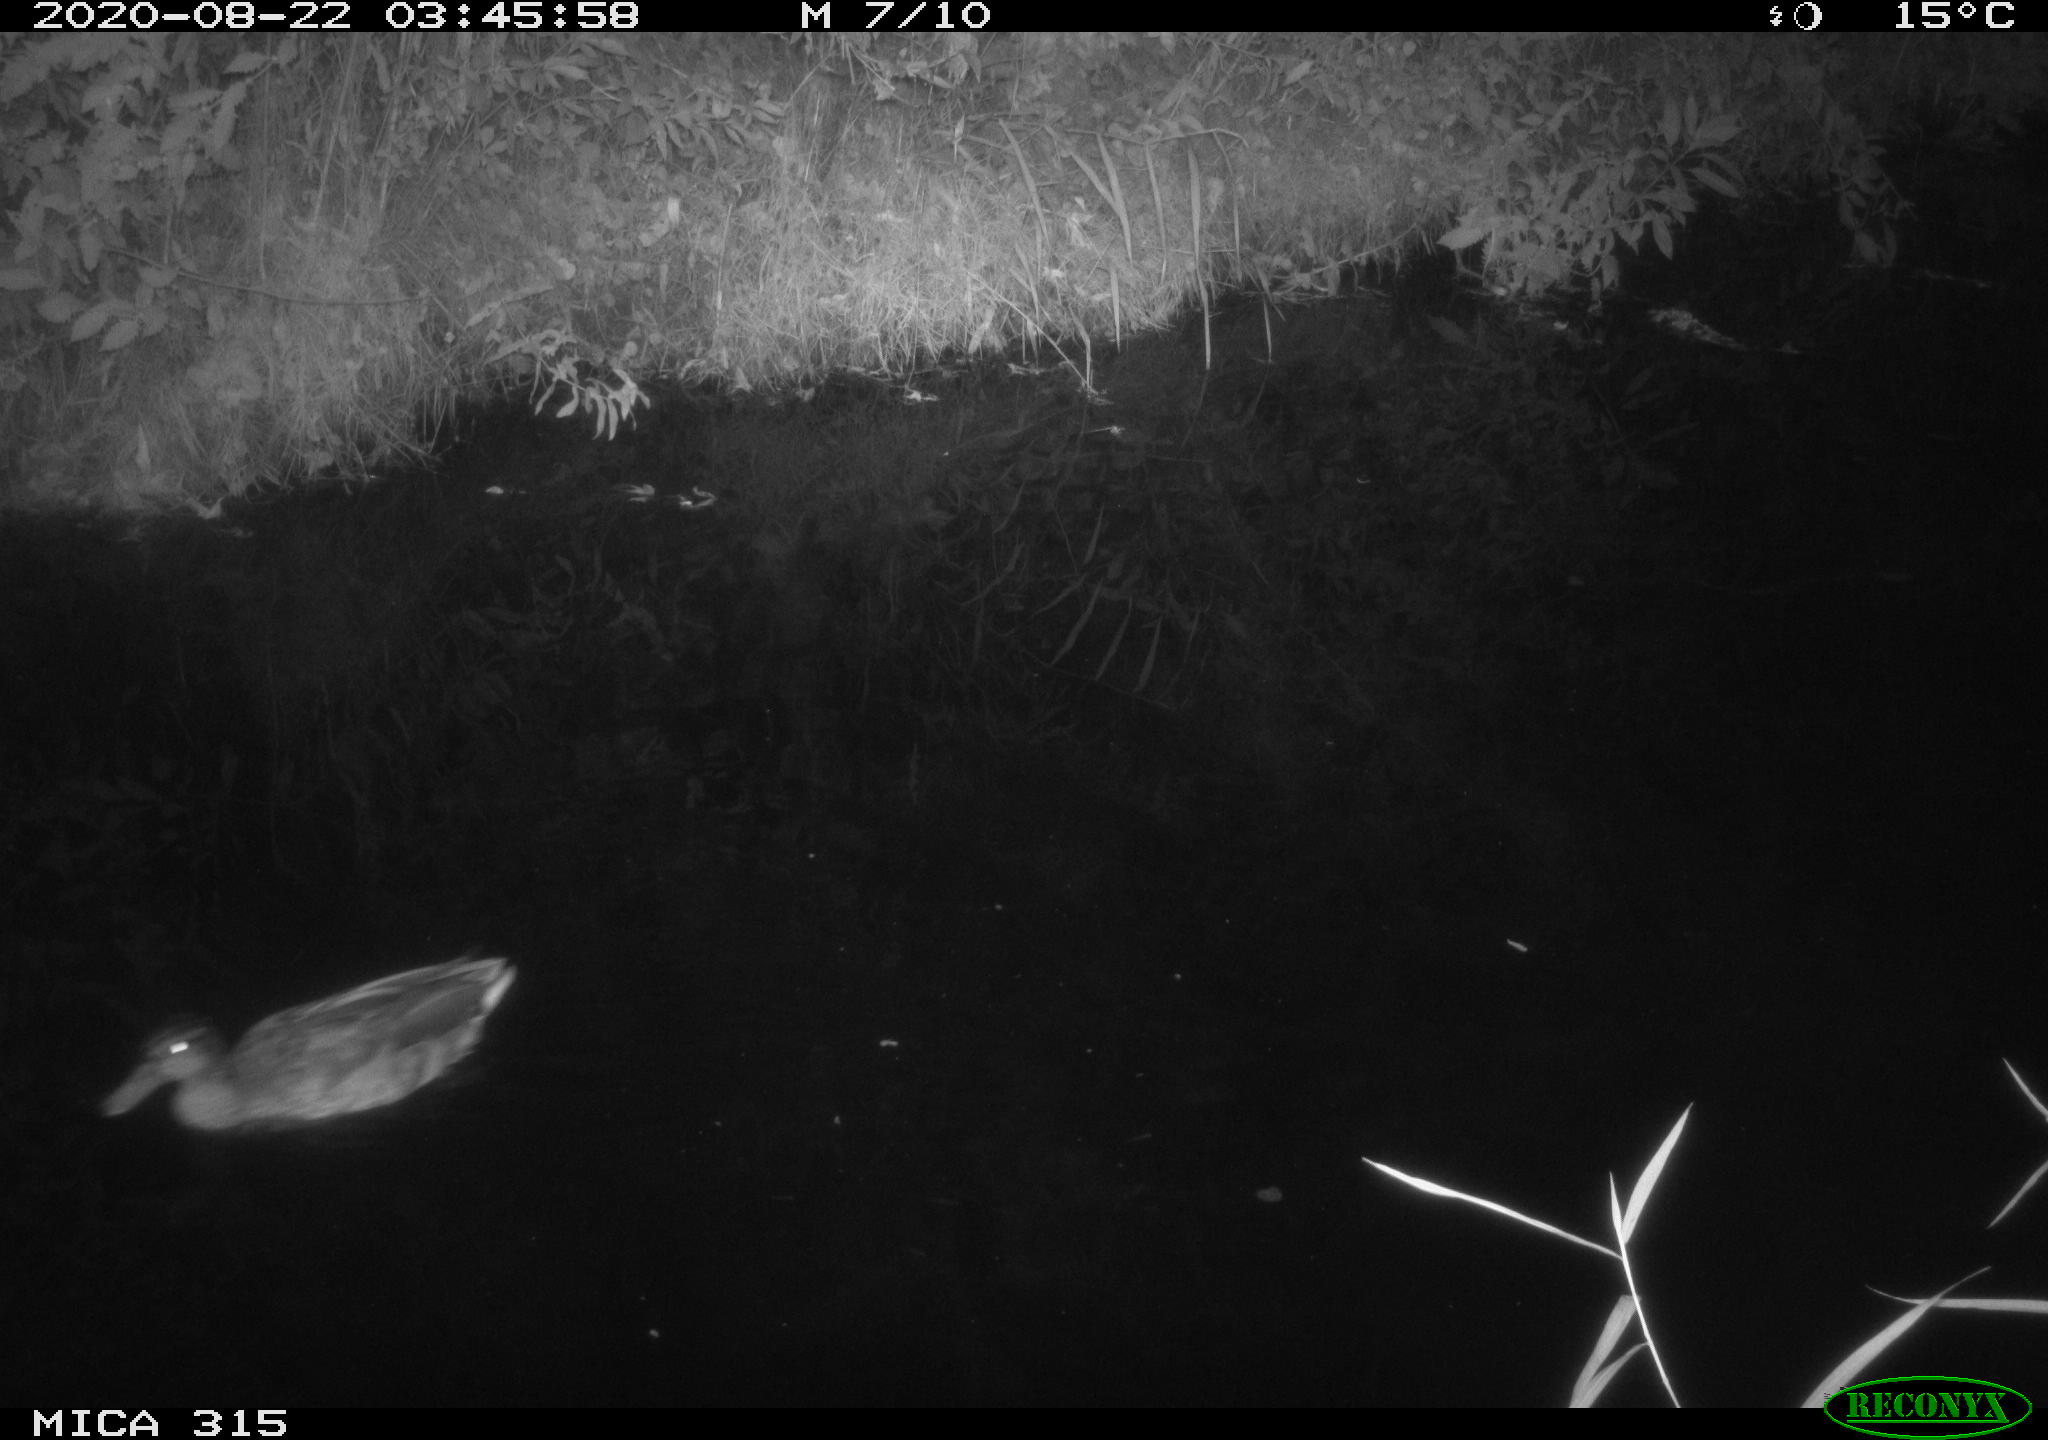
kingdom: Animalia
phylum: Chordata
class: Aves
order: Anseriformes
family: Anatidae
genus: Anas
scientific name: Anas platyrhynchos
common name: Mallard
